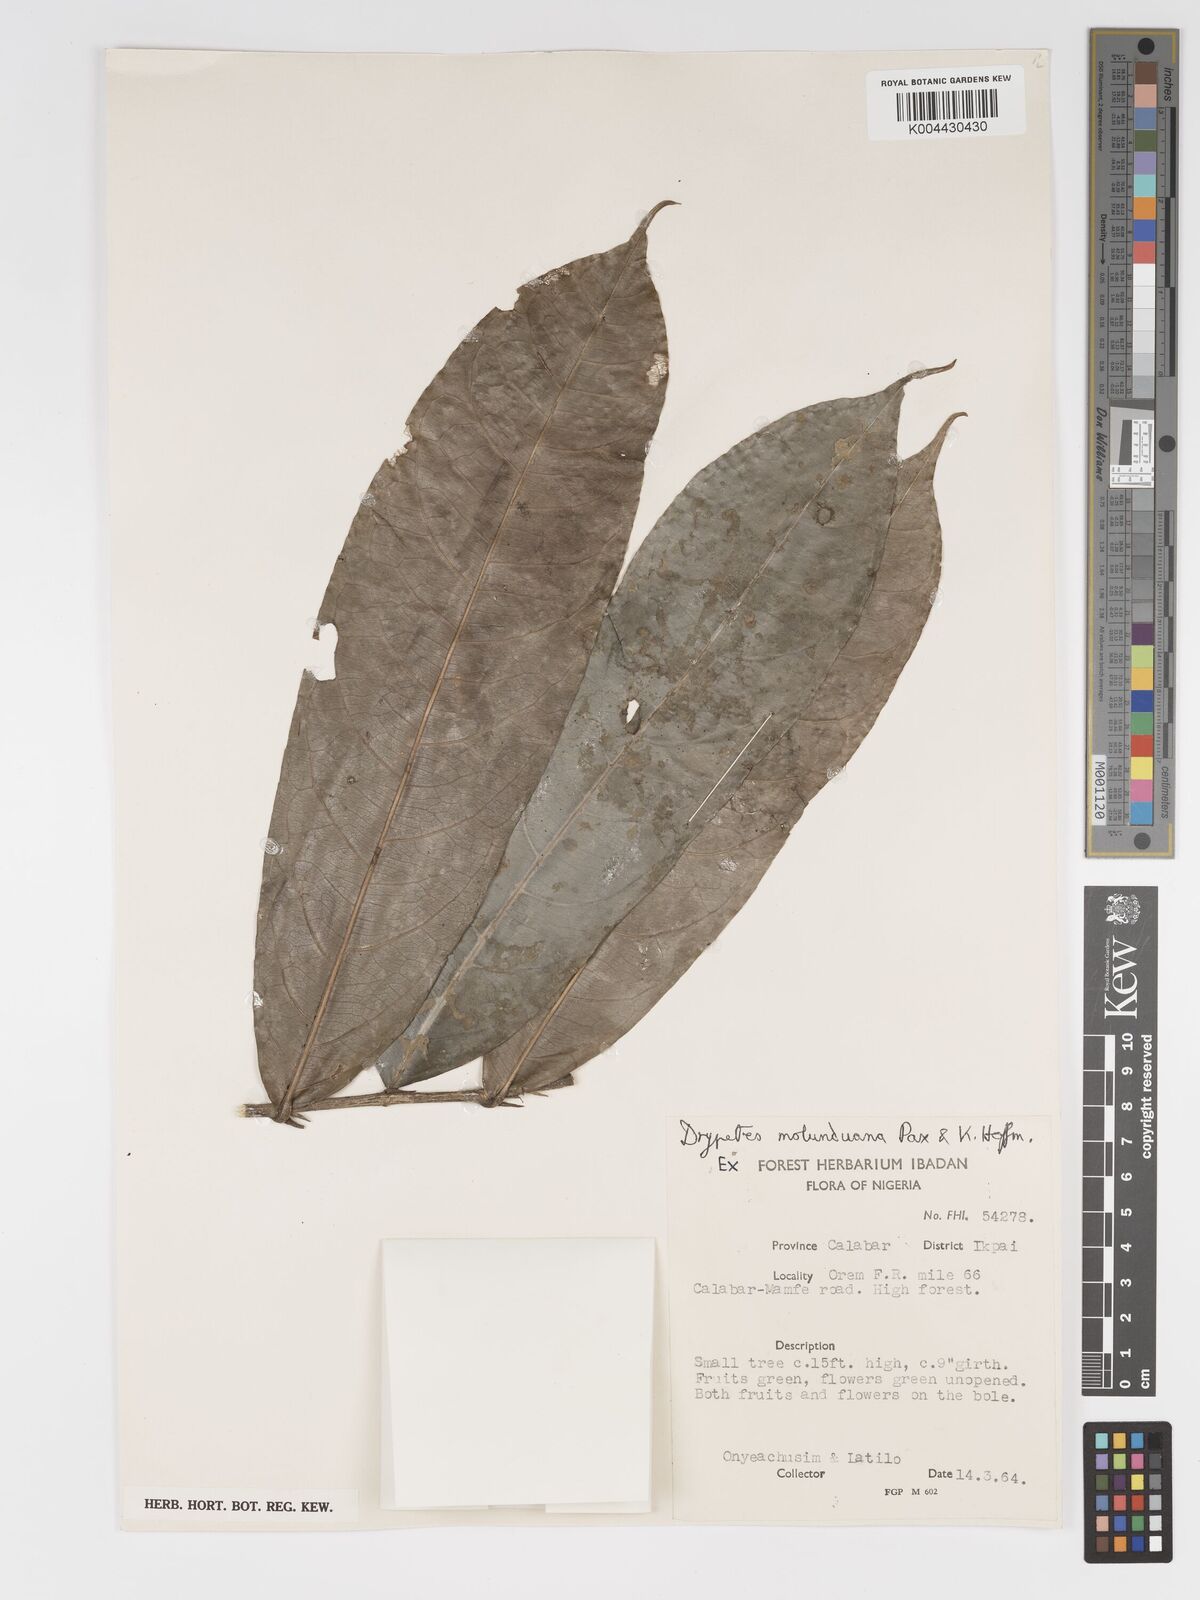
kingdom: Plantae
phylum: Tracheophyta
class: Magnoliopsida
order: Malpighiales
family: Putranjivaceae
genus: Drypetes
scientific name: Drypetes molunduana
